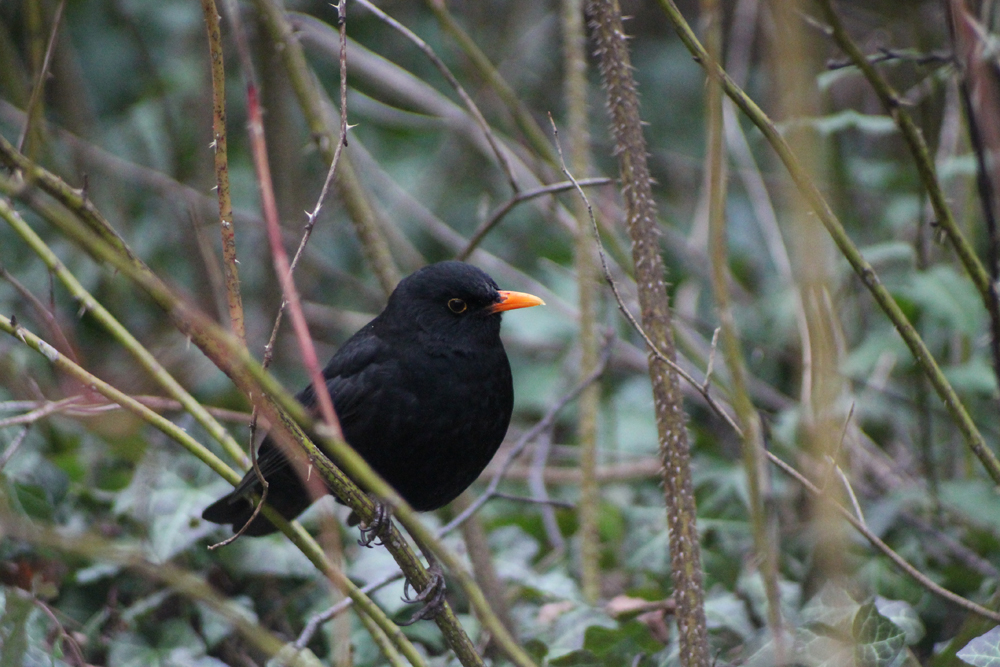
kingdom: Animalia
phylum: Chordata
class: Aves
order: Passeriformes
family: Turdidae
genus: Turdus
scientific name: Turdus merula
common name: Common blackbird
